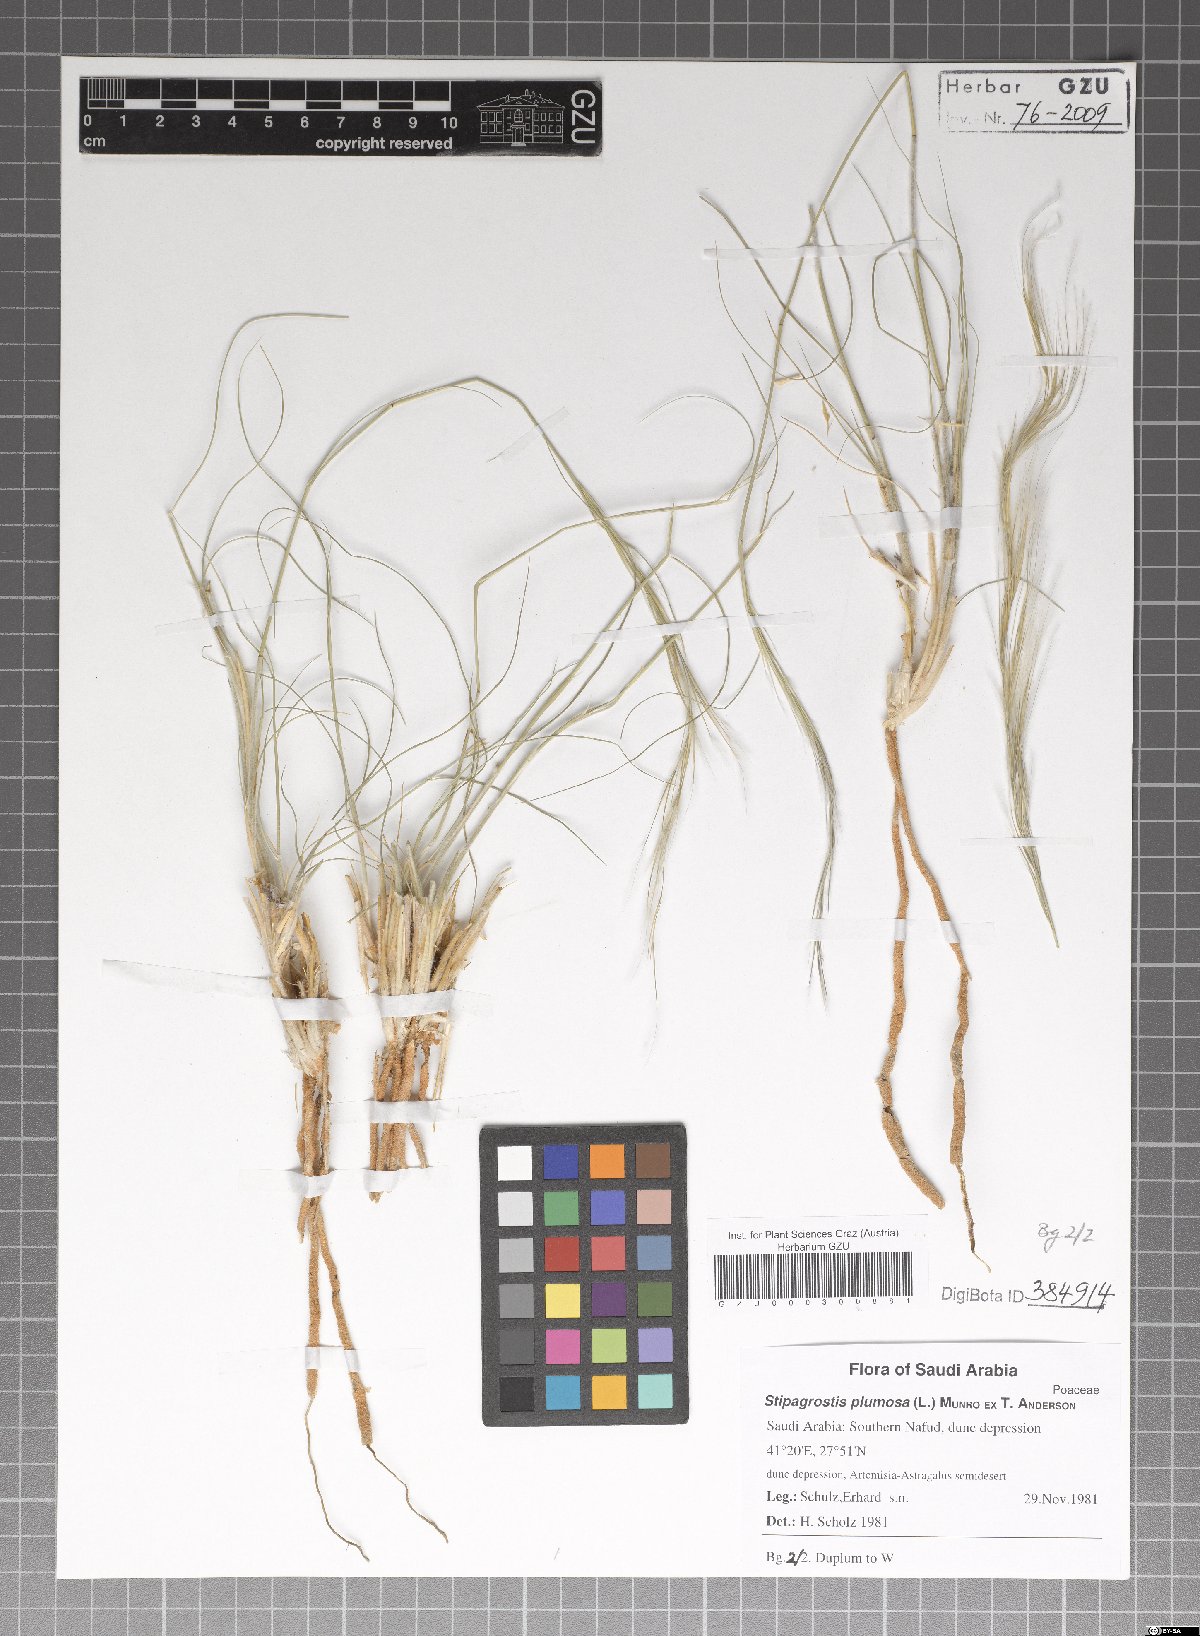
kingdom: Plantae
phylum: Tracheophyta
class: Liliopsida
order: Poales
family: Poaceae
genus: Stipagrostis
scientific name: Stipagrostis plumosa
